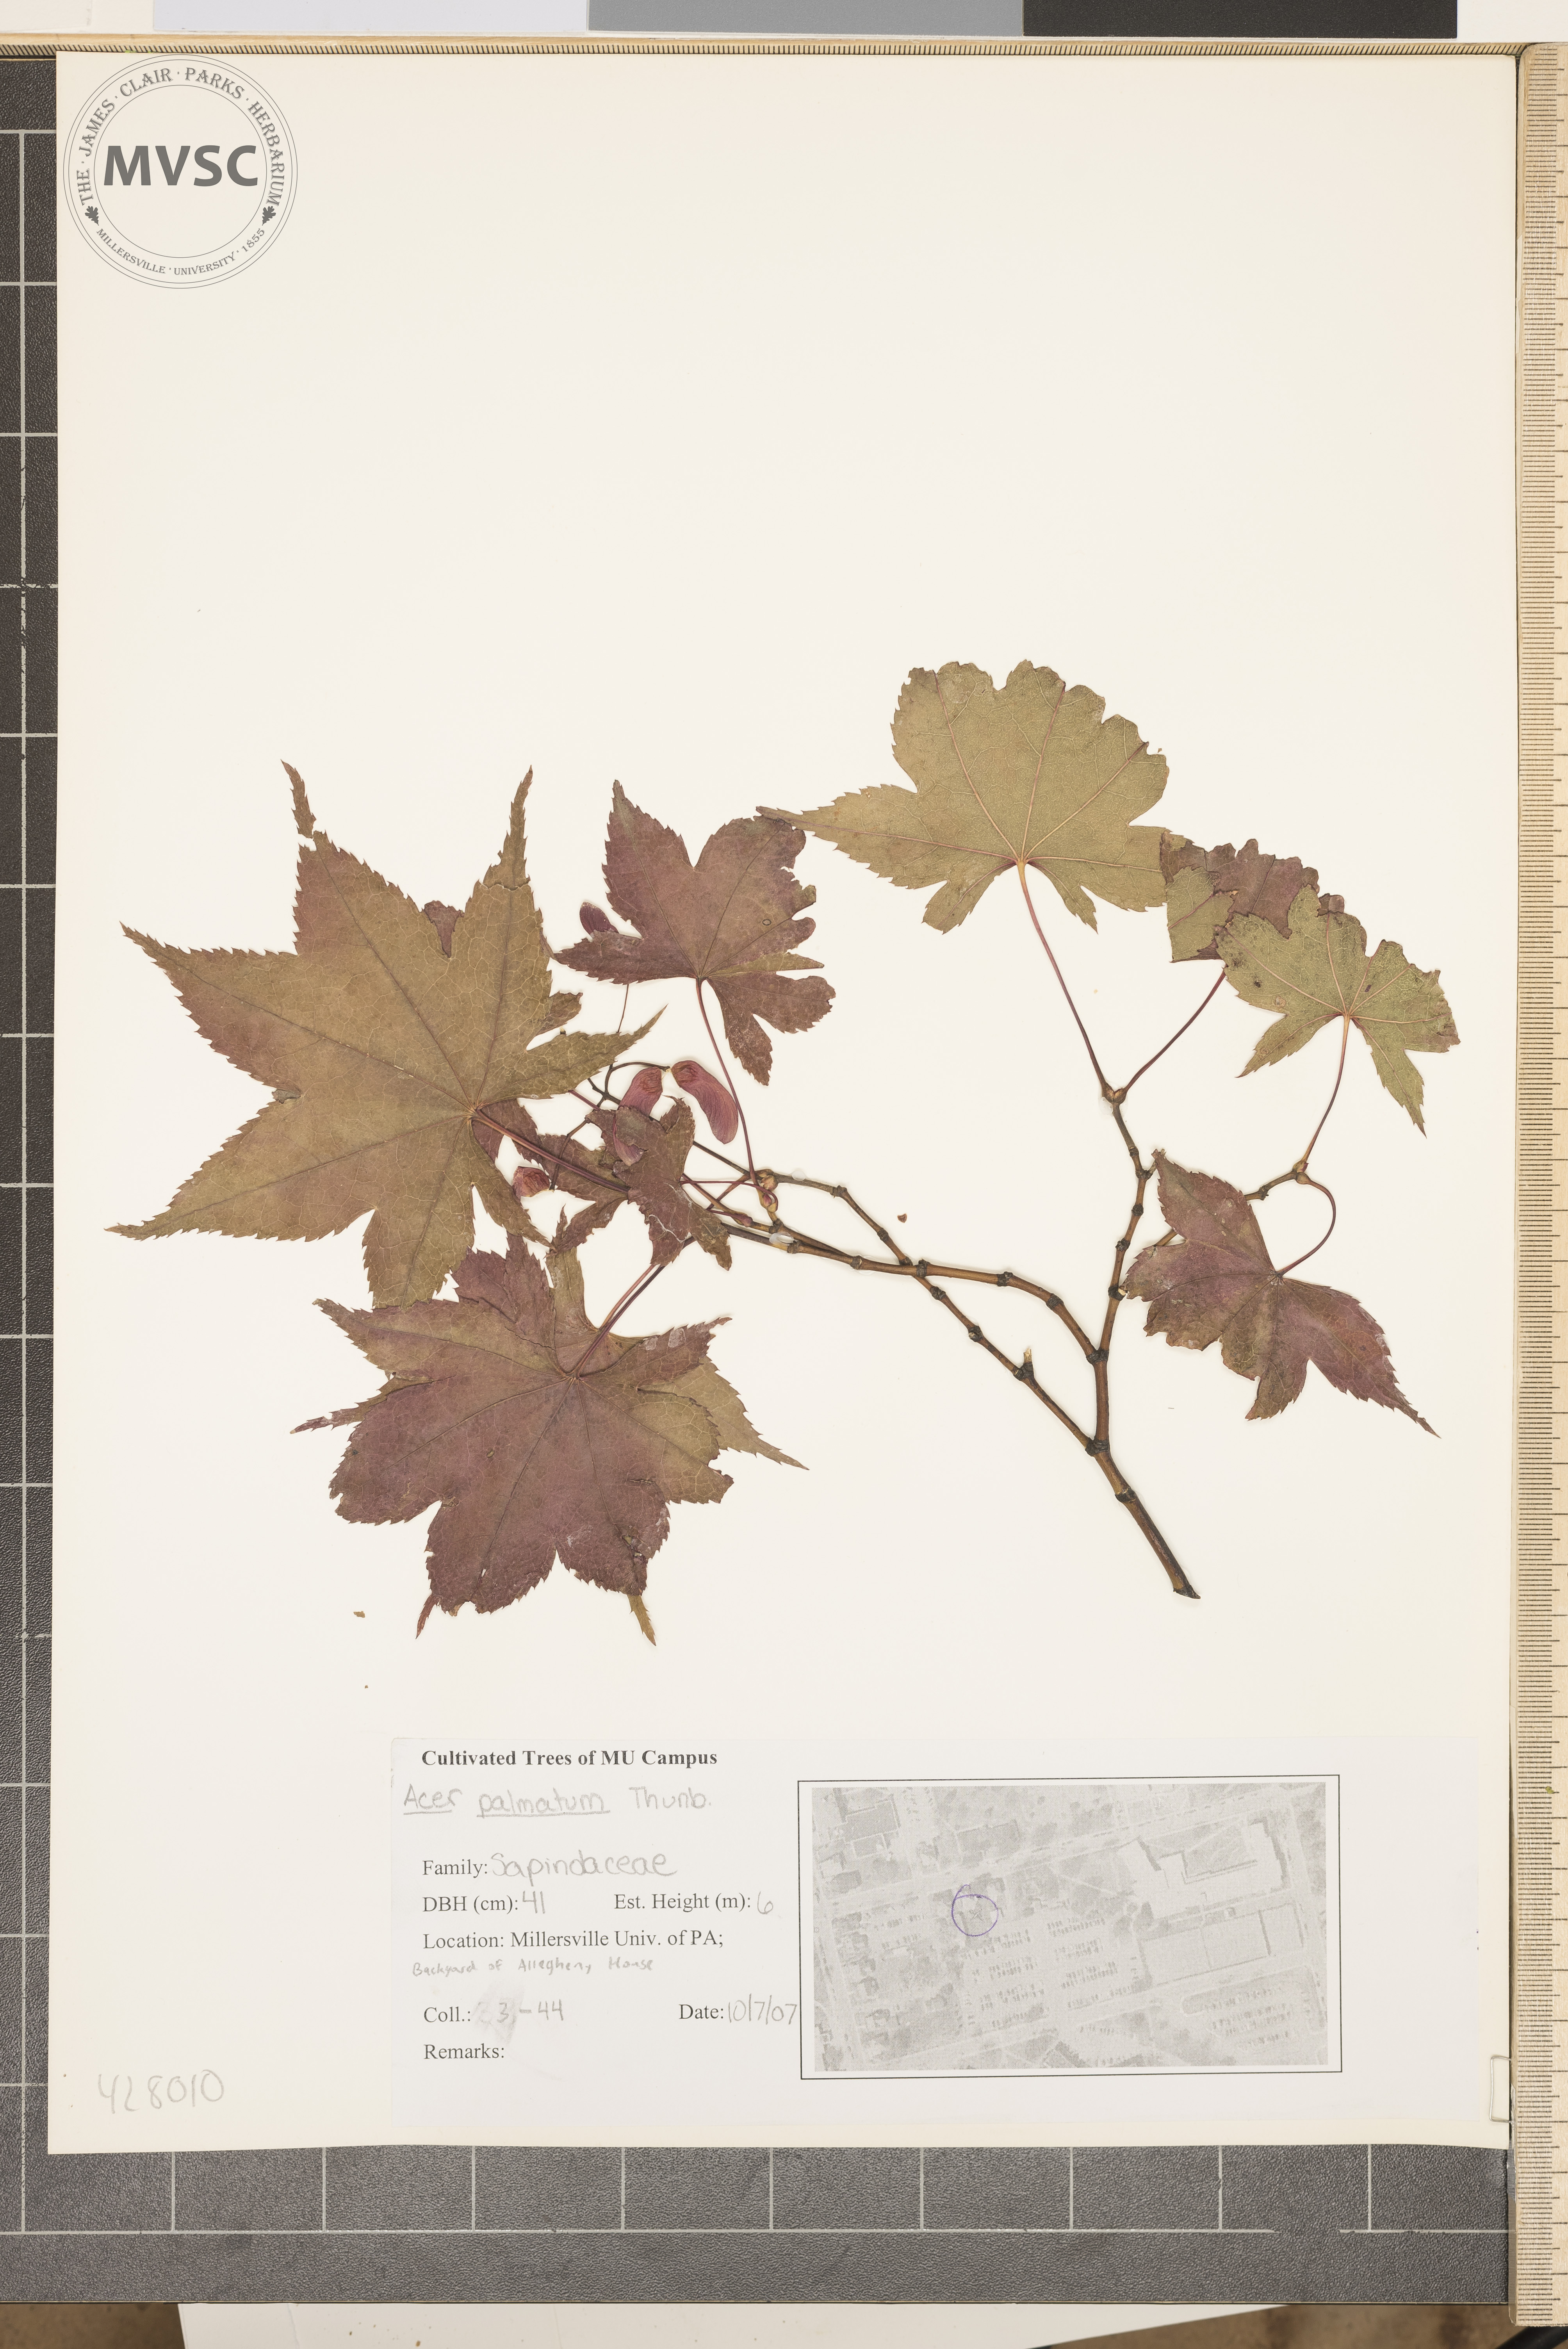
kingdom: Plantae
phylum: Tracheophyta
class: Magnoliopsida
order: Sapindales
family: Sapindaceae
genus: Acer
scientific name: Acer palmatum
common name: Japanese Maple
